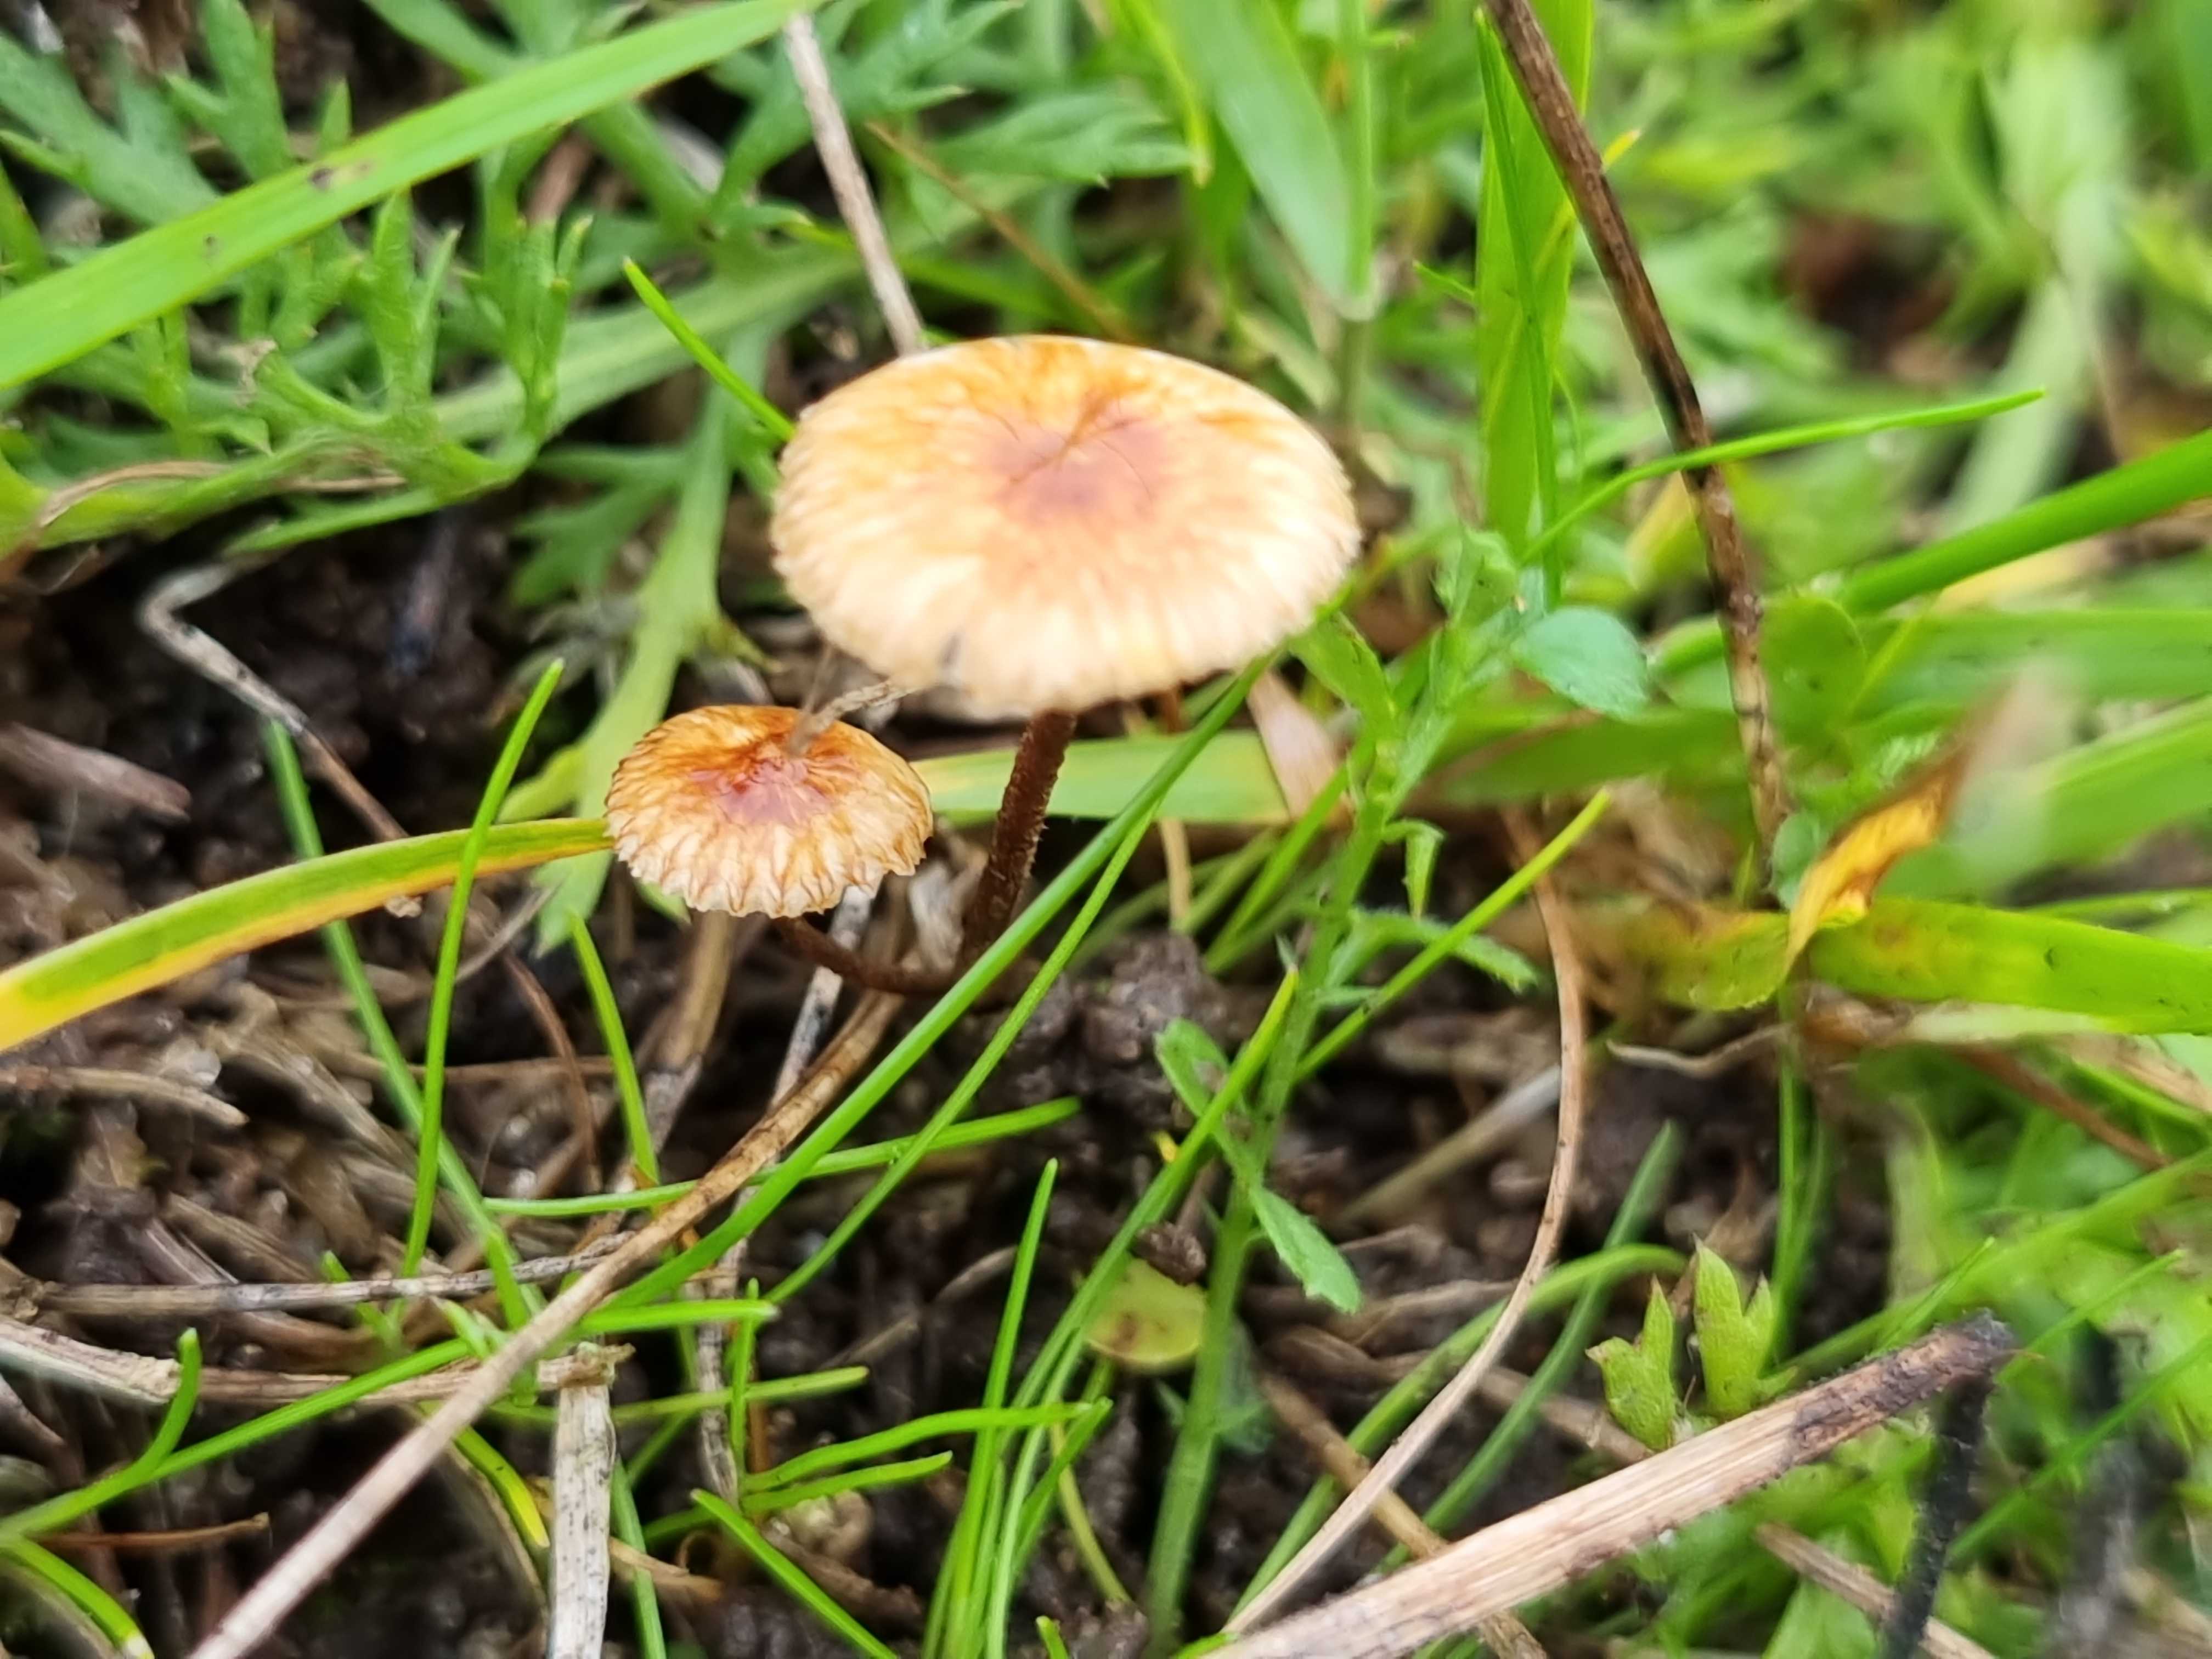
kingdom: Fungi
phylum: Basidiomycota
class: Agaricomycetes
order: Agaricales
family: Marasmiaceae
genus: Crinipellis
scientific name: Crinipellis scabella
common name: børstefod
